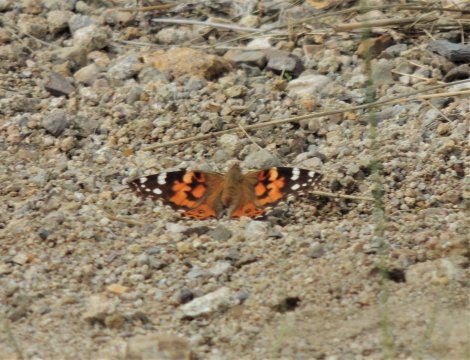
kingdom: Animalia
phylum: Arthropoda
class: Insecta
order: Lepidoptera
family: Nymphalidae
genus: Vanessa
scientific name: Vanessa cardui
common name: Painted Lady
